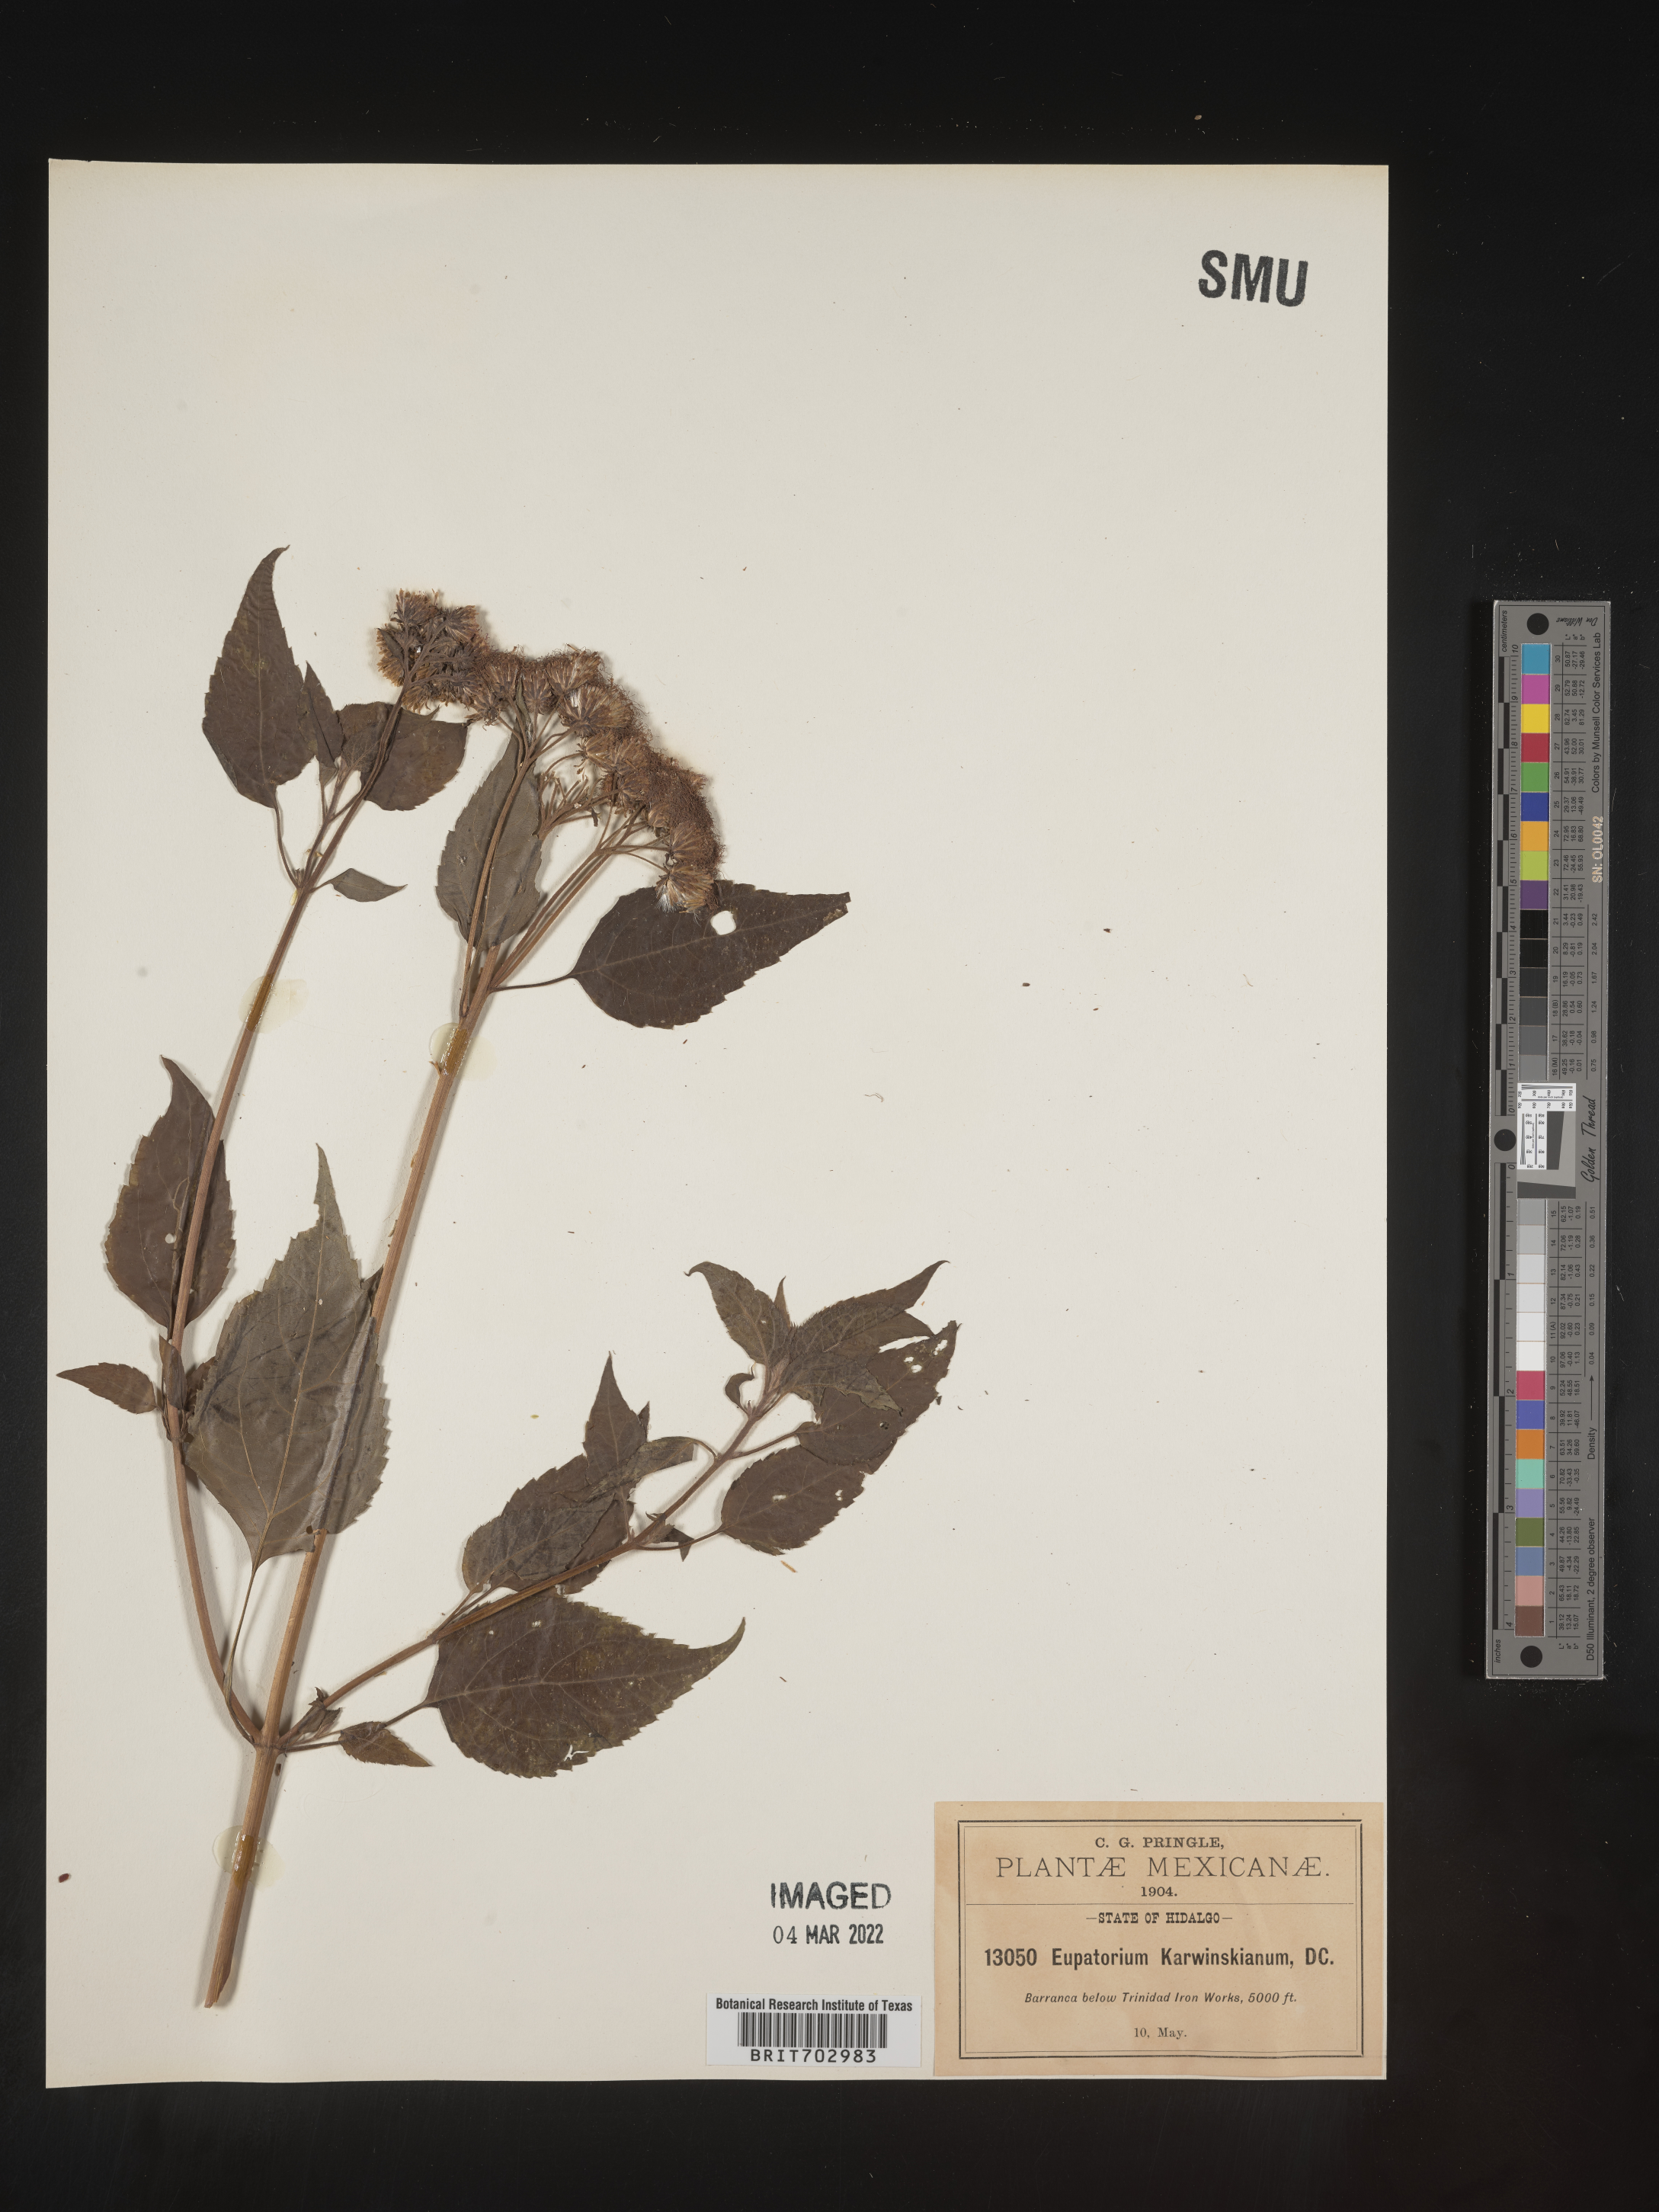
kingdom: Plantae
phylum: Tracheophyta
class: Magnoliopsida
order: Asterales
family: Asteraceae
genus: Eupatorium
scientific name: Eupatorium
